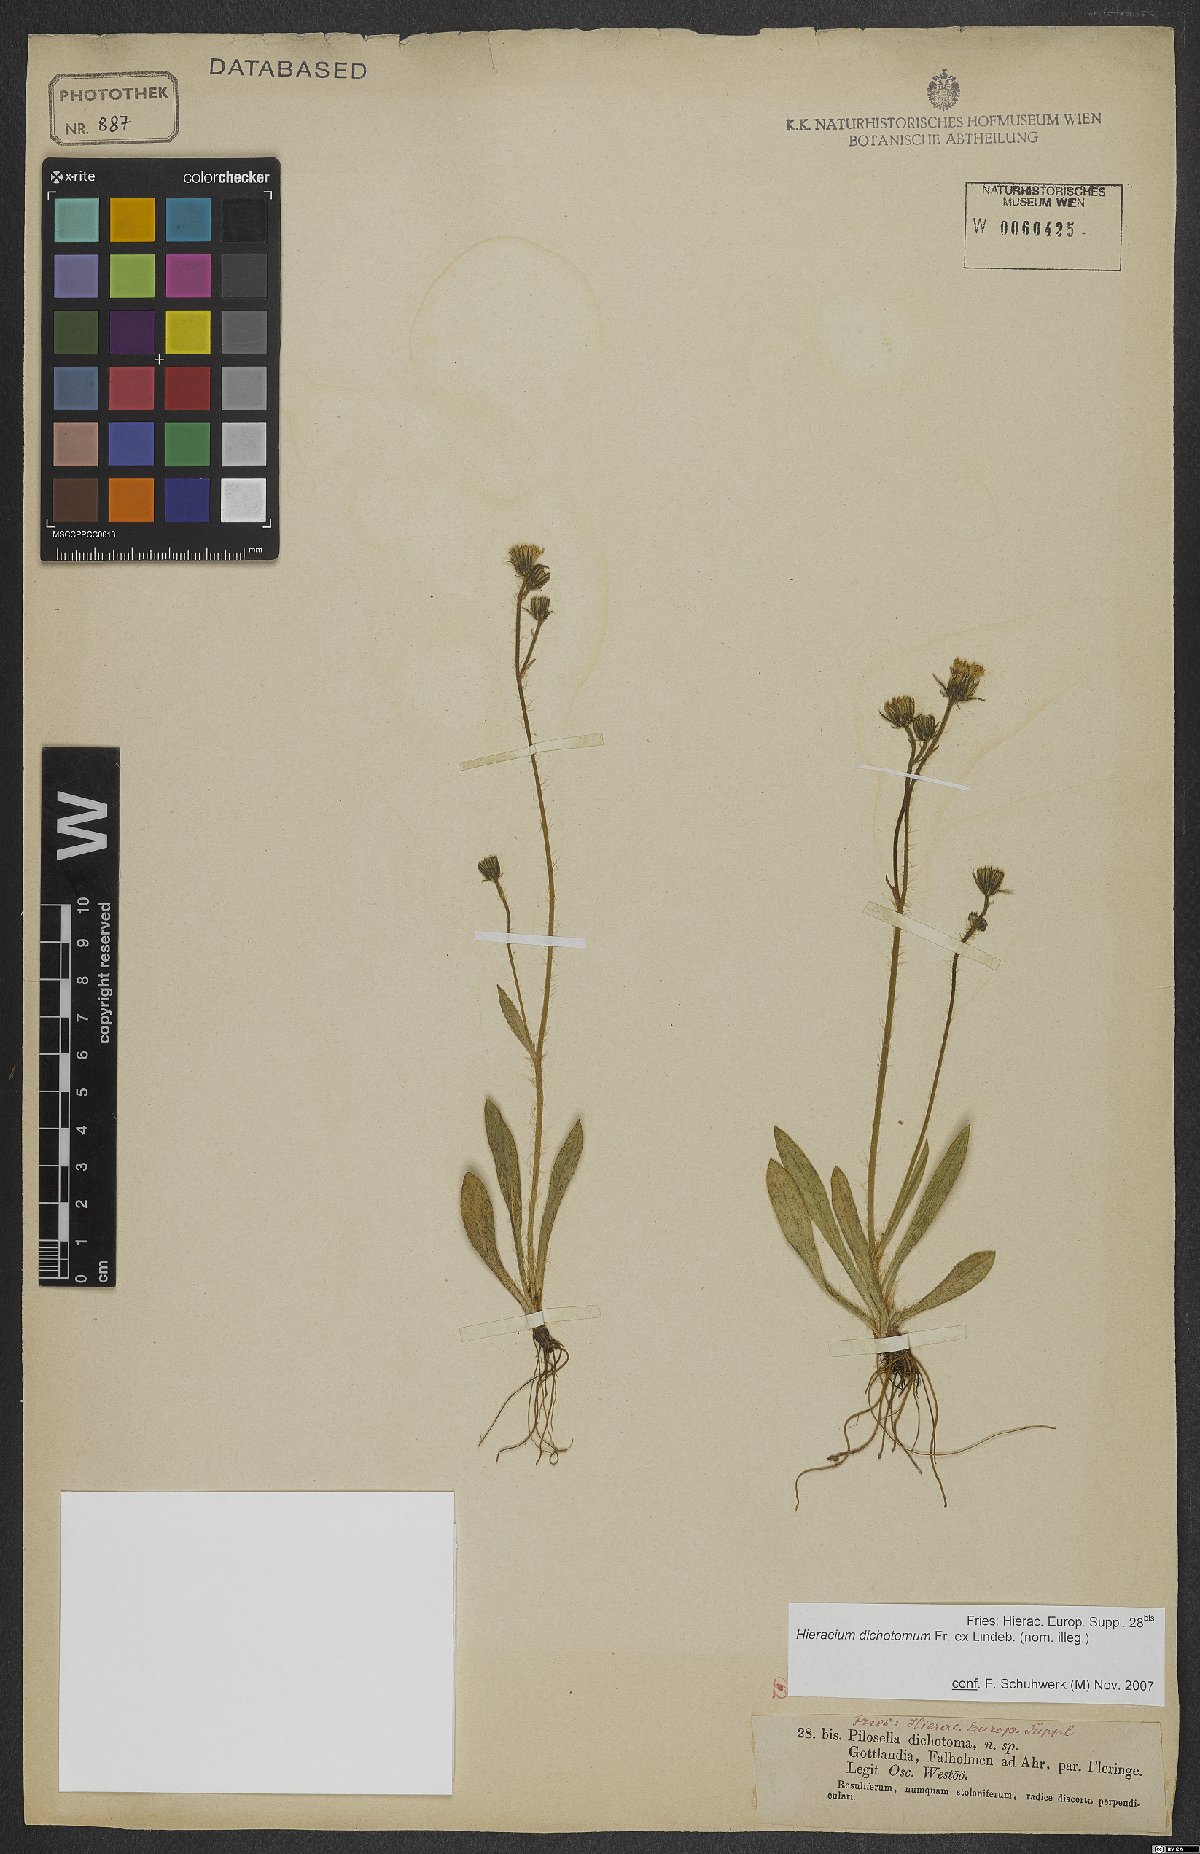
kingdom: Plantae
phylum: Tracheophyta
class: Magnoliopsida
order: Asterales
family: Asteraceae
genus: Pilosella
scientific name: Pilosella dichotoma
